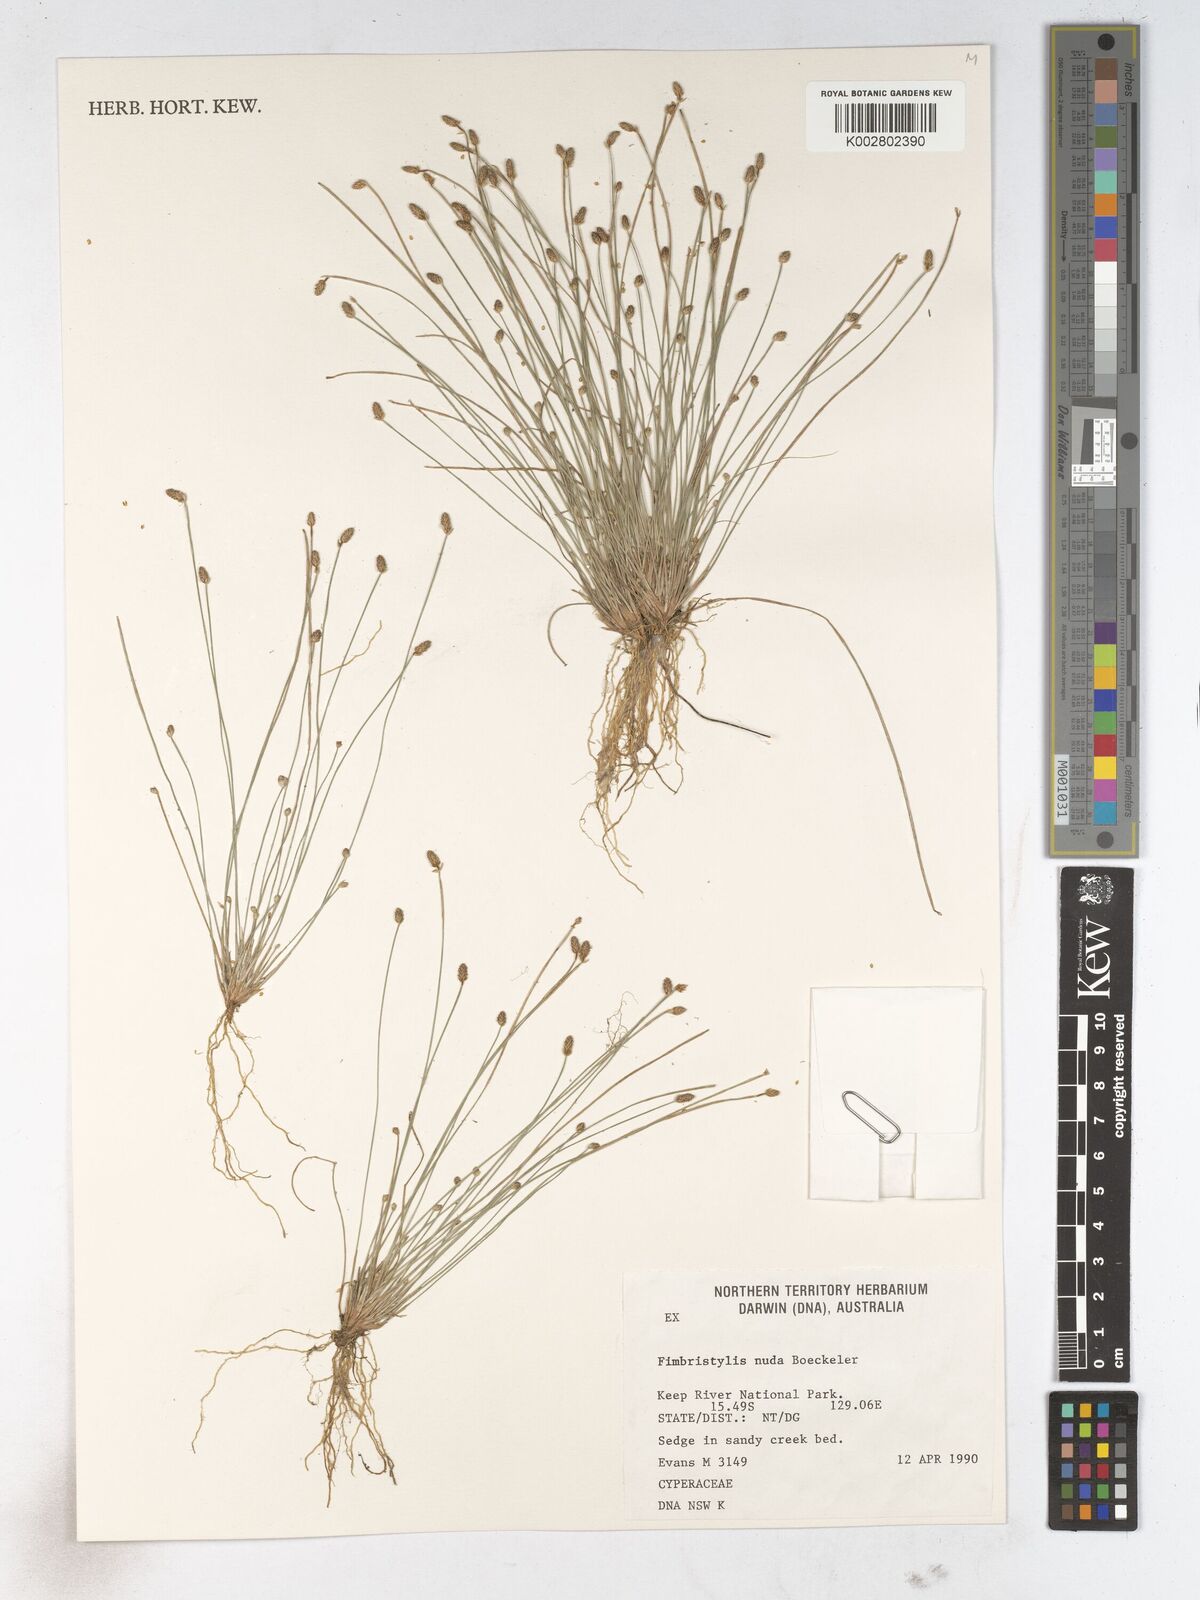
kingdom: Plantae
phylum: Tracheophyta
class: Liliopsida
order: Poales
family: Cyperaceae
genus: Fimbristylis
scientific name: Fimbristylis nuda
